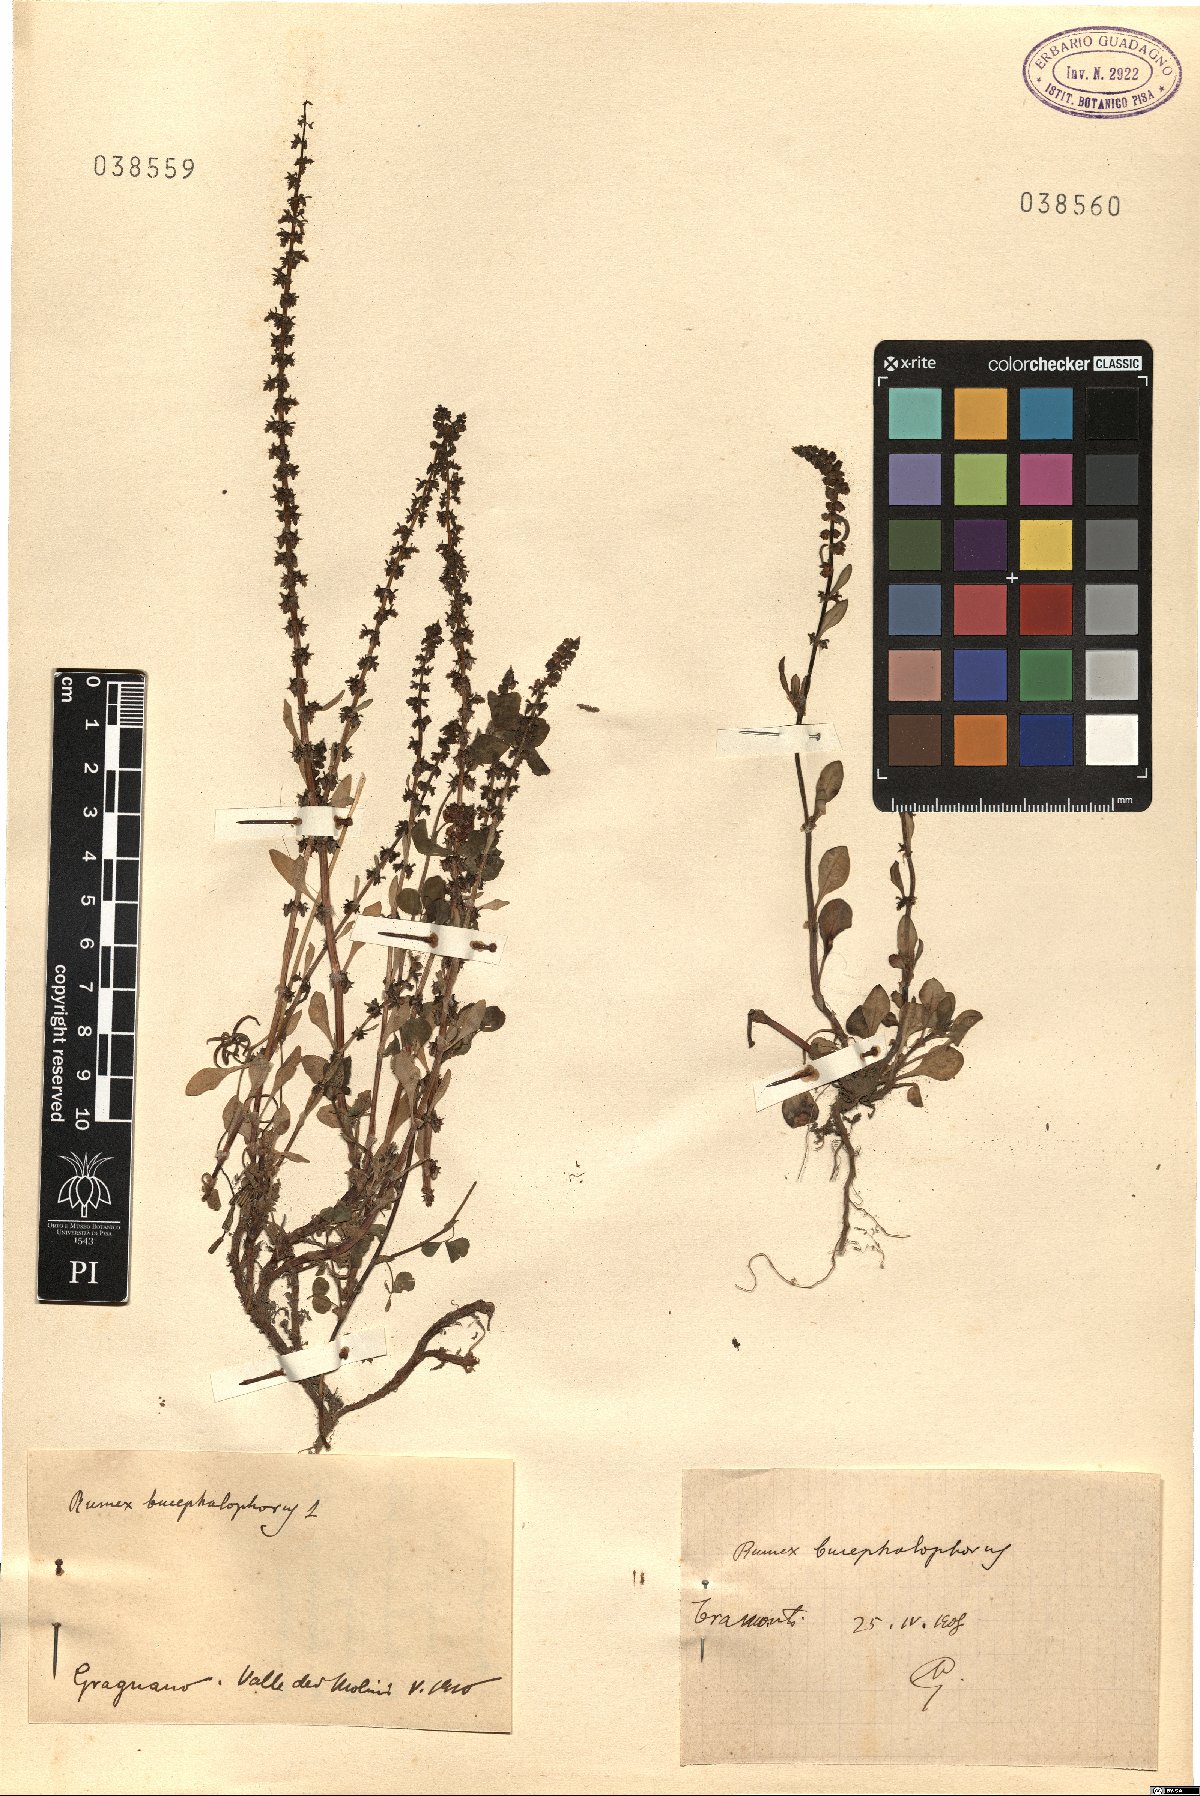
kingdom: Plantae
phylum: Tracheophyta
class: Magnoliopsida
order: Caryophyllales
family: Polygonaceae
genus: Rumex
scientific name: Rumex bucephalophorus
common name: Red dock
